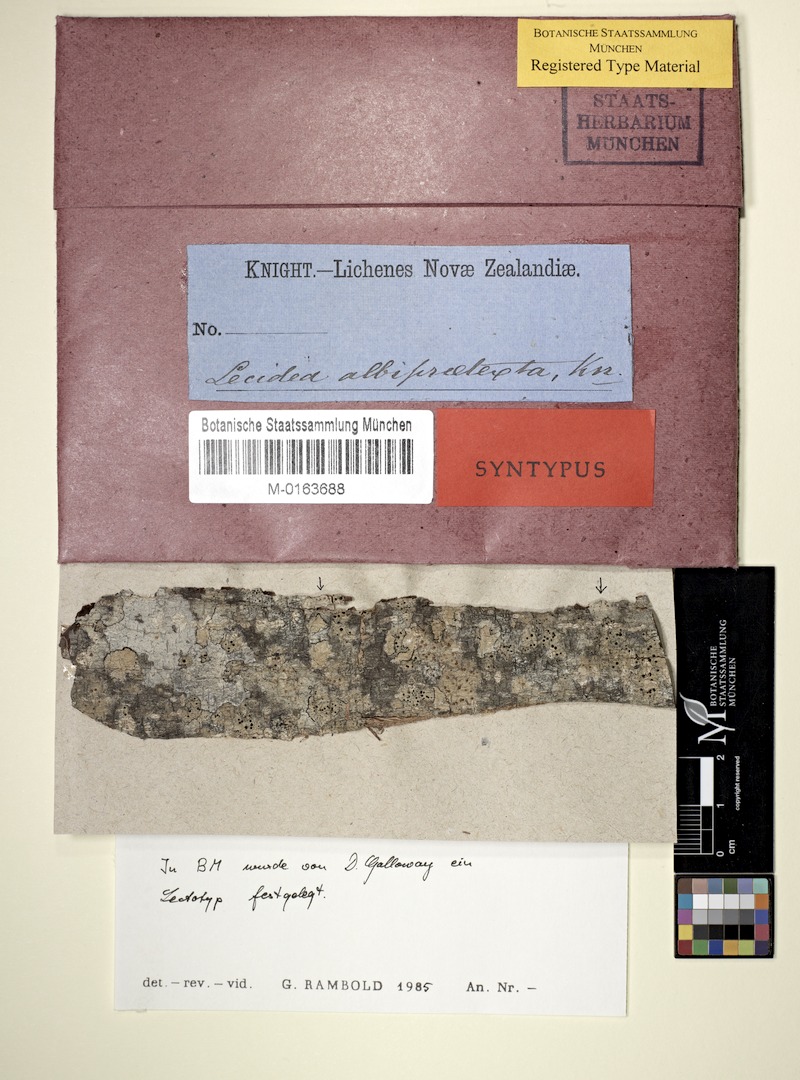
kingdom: Fungi
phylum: Ascomycota
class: Lecanoromycetes
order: Lecanorales
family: Ramalinaceae
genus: Biatora
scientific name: Biatora
